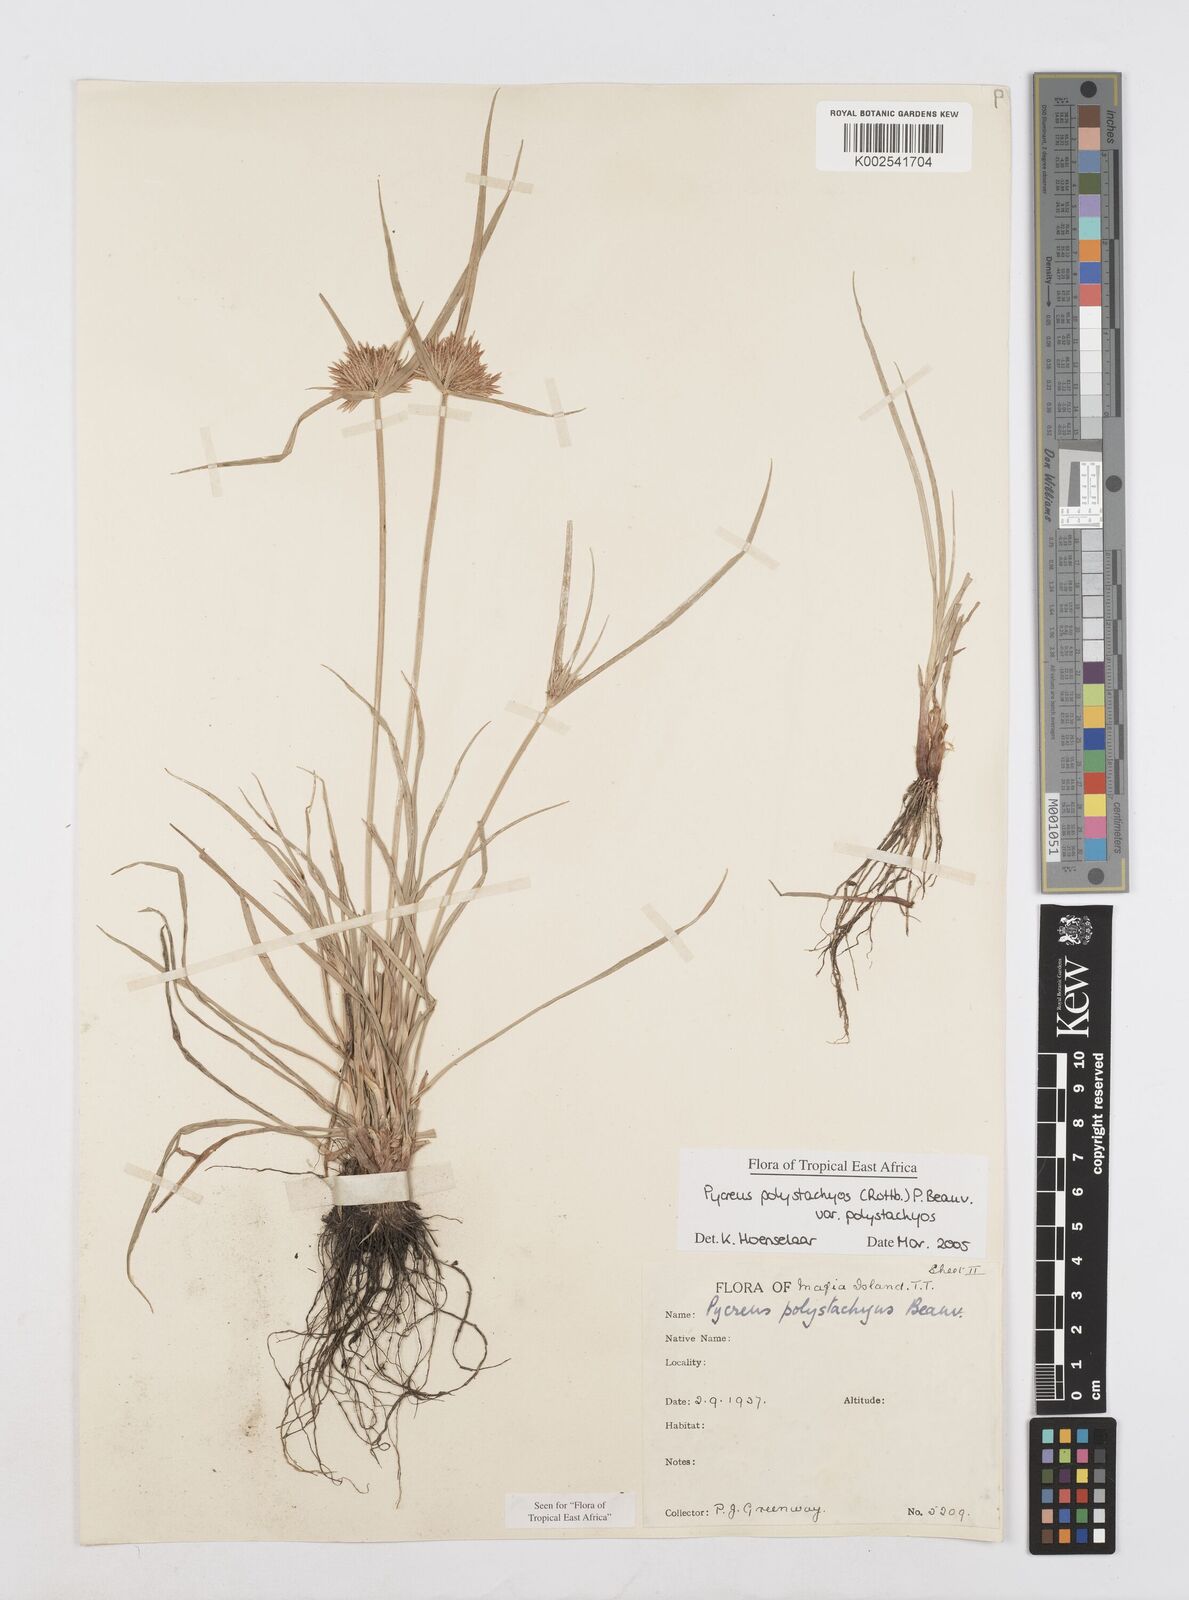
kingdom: Plantae
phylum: Tracheophyta
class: Liliopsida
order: Poales
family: Cyperaceae
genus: Cyperus
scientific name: Cyperus polystachyos
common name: Bunchy flat sedge
